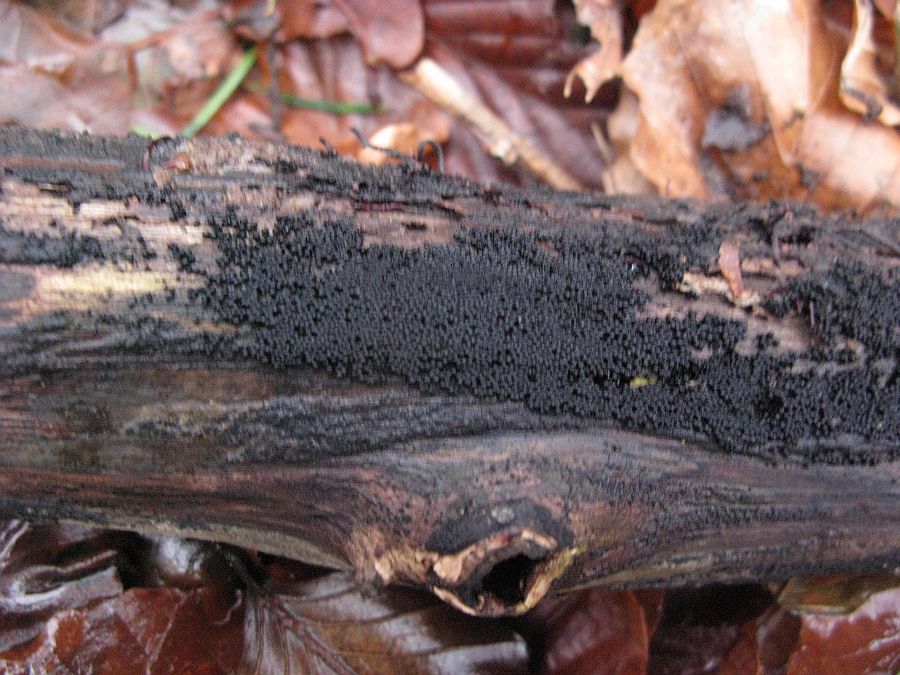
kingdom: Fungi
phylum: Ascomycota
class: Sordariomycetes
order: Sordariales
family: Helminthosphaeriaceae
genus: Ruzenia
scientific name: Ruzenia spermoides
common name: glat børstekerne
